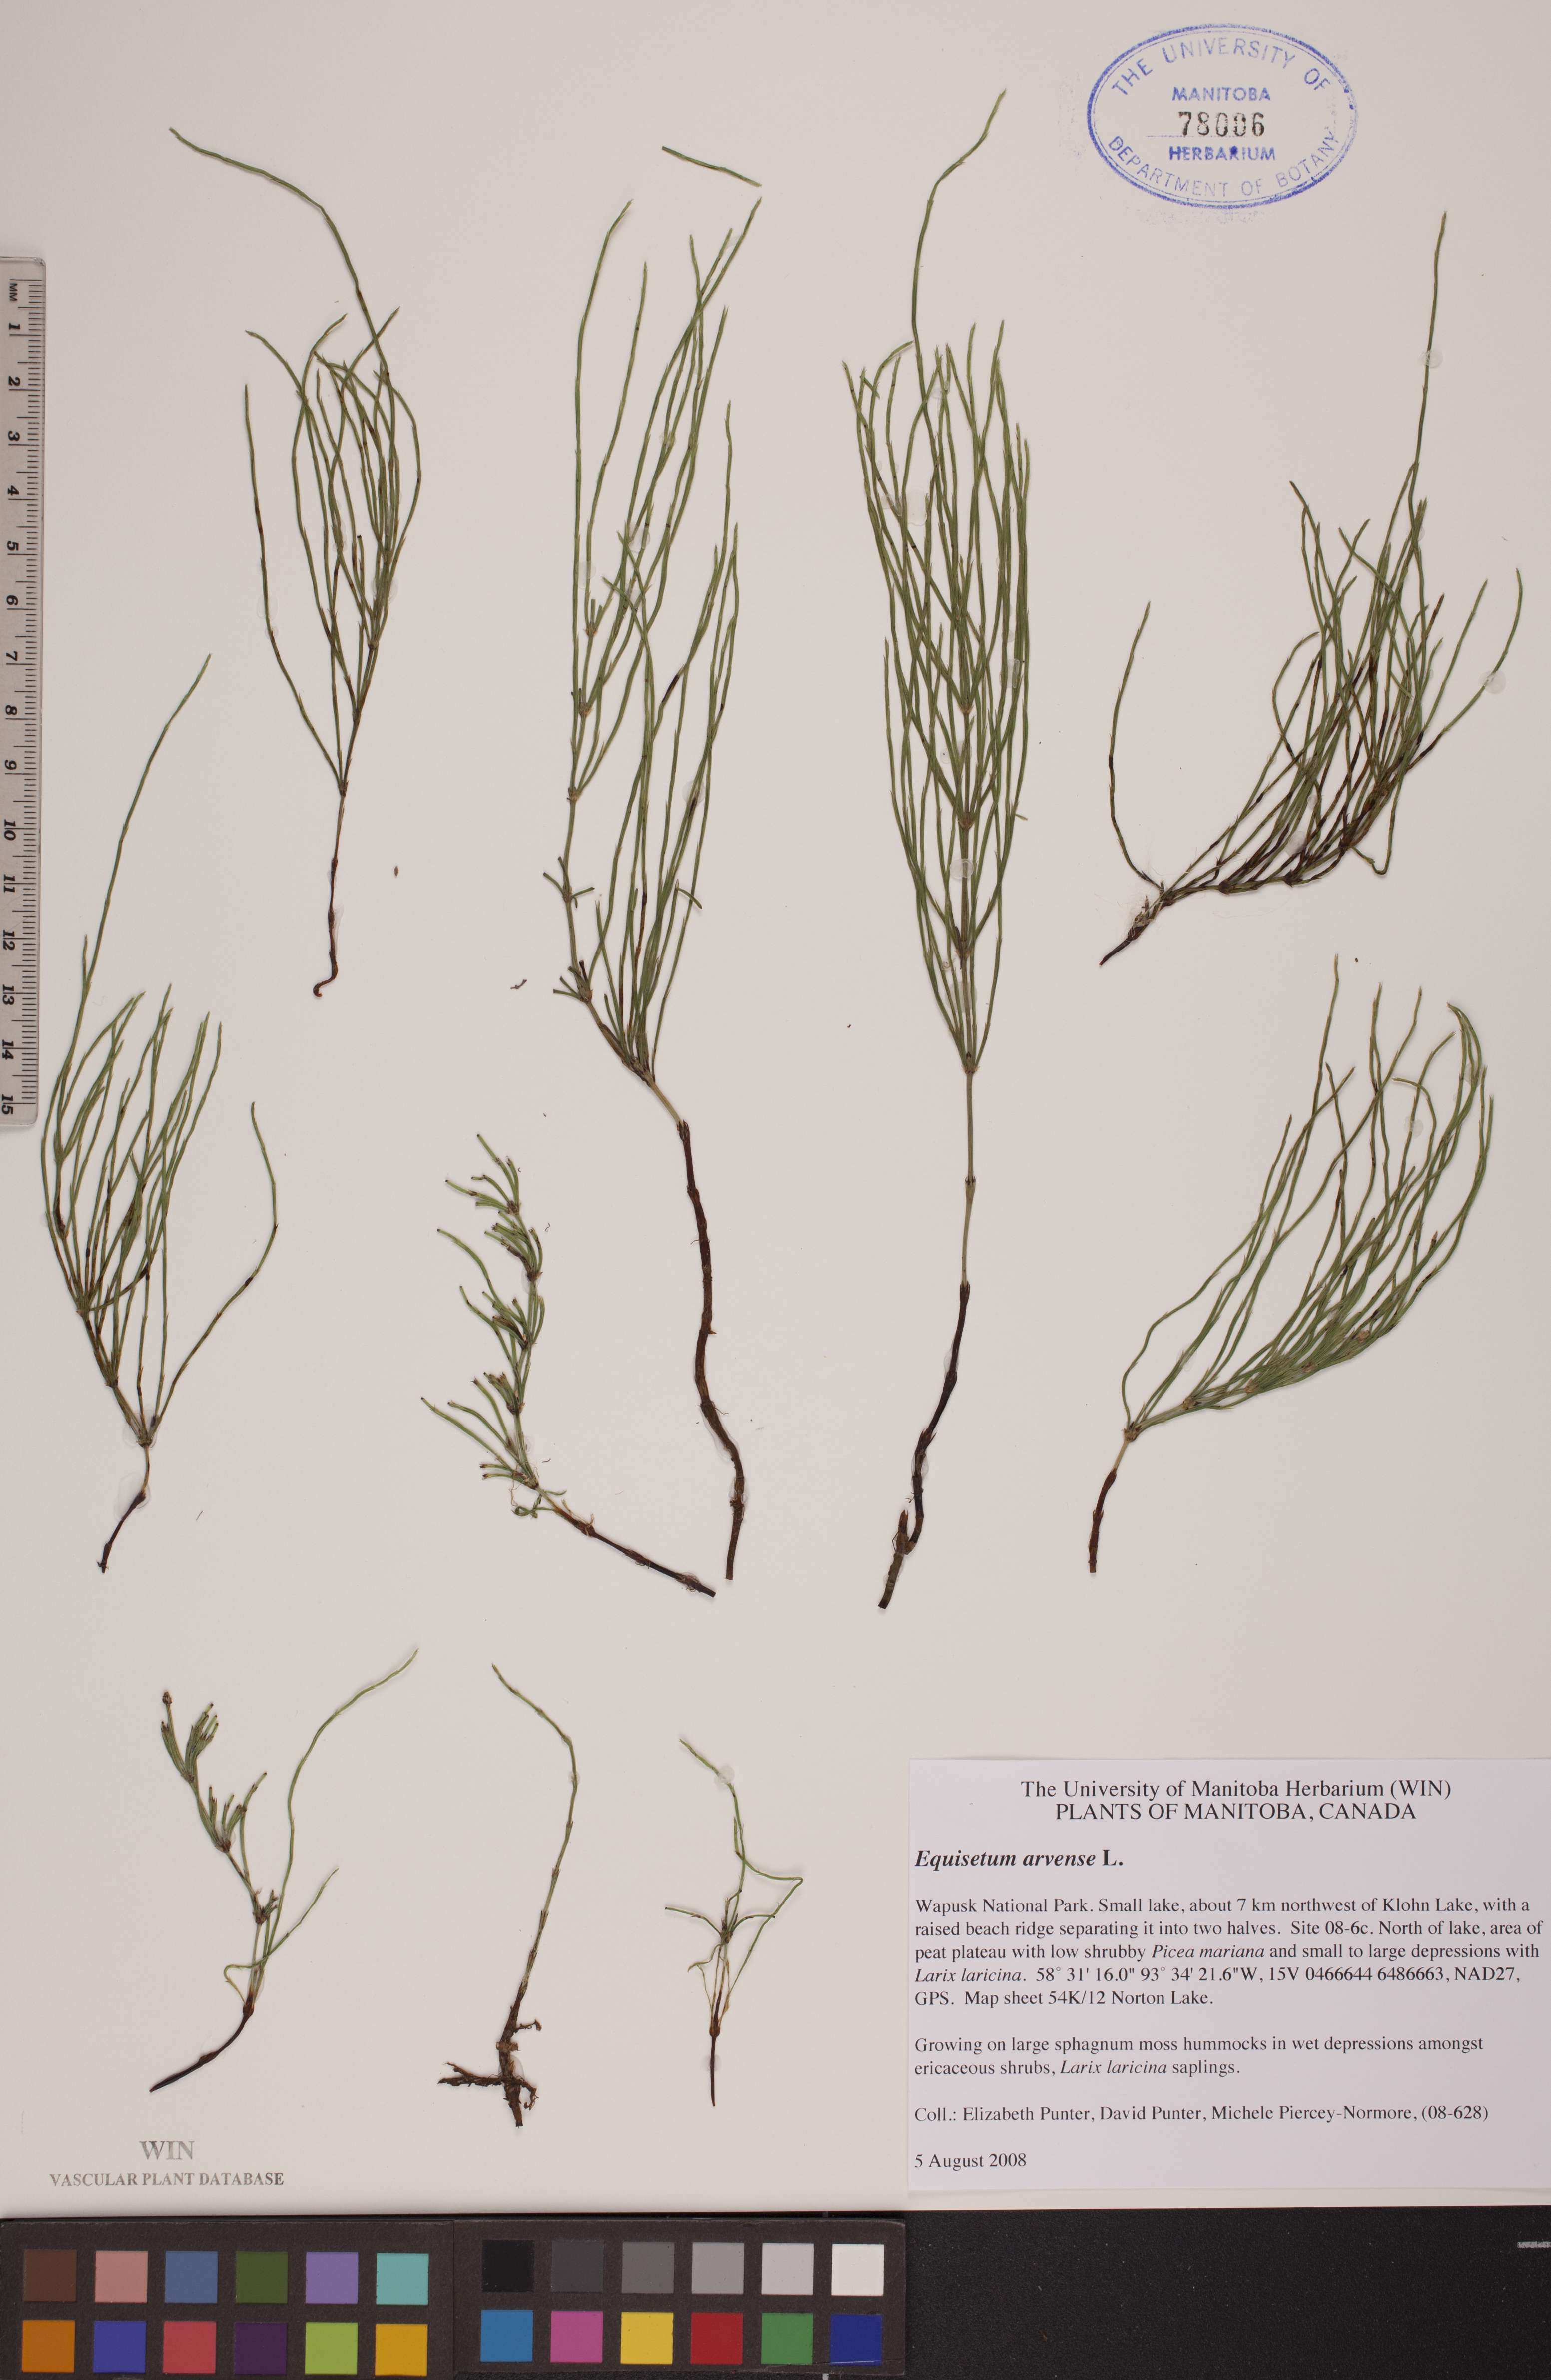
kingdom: Plantae
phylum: Tracheophyta
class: Polypodiopsida
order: Equisetales
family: Equisetaceae
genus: Equisetum
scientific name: Equisetum arvense
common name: Field horsetail
